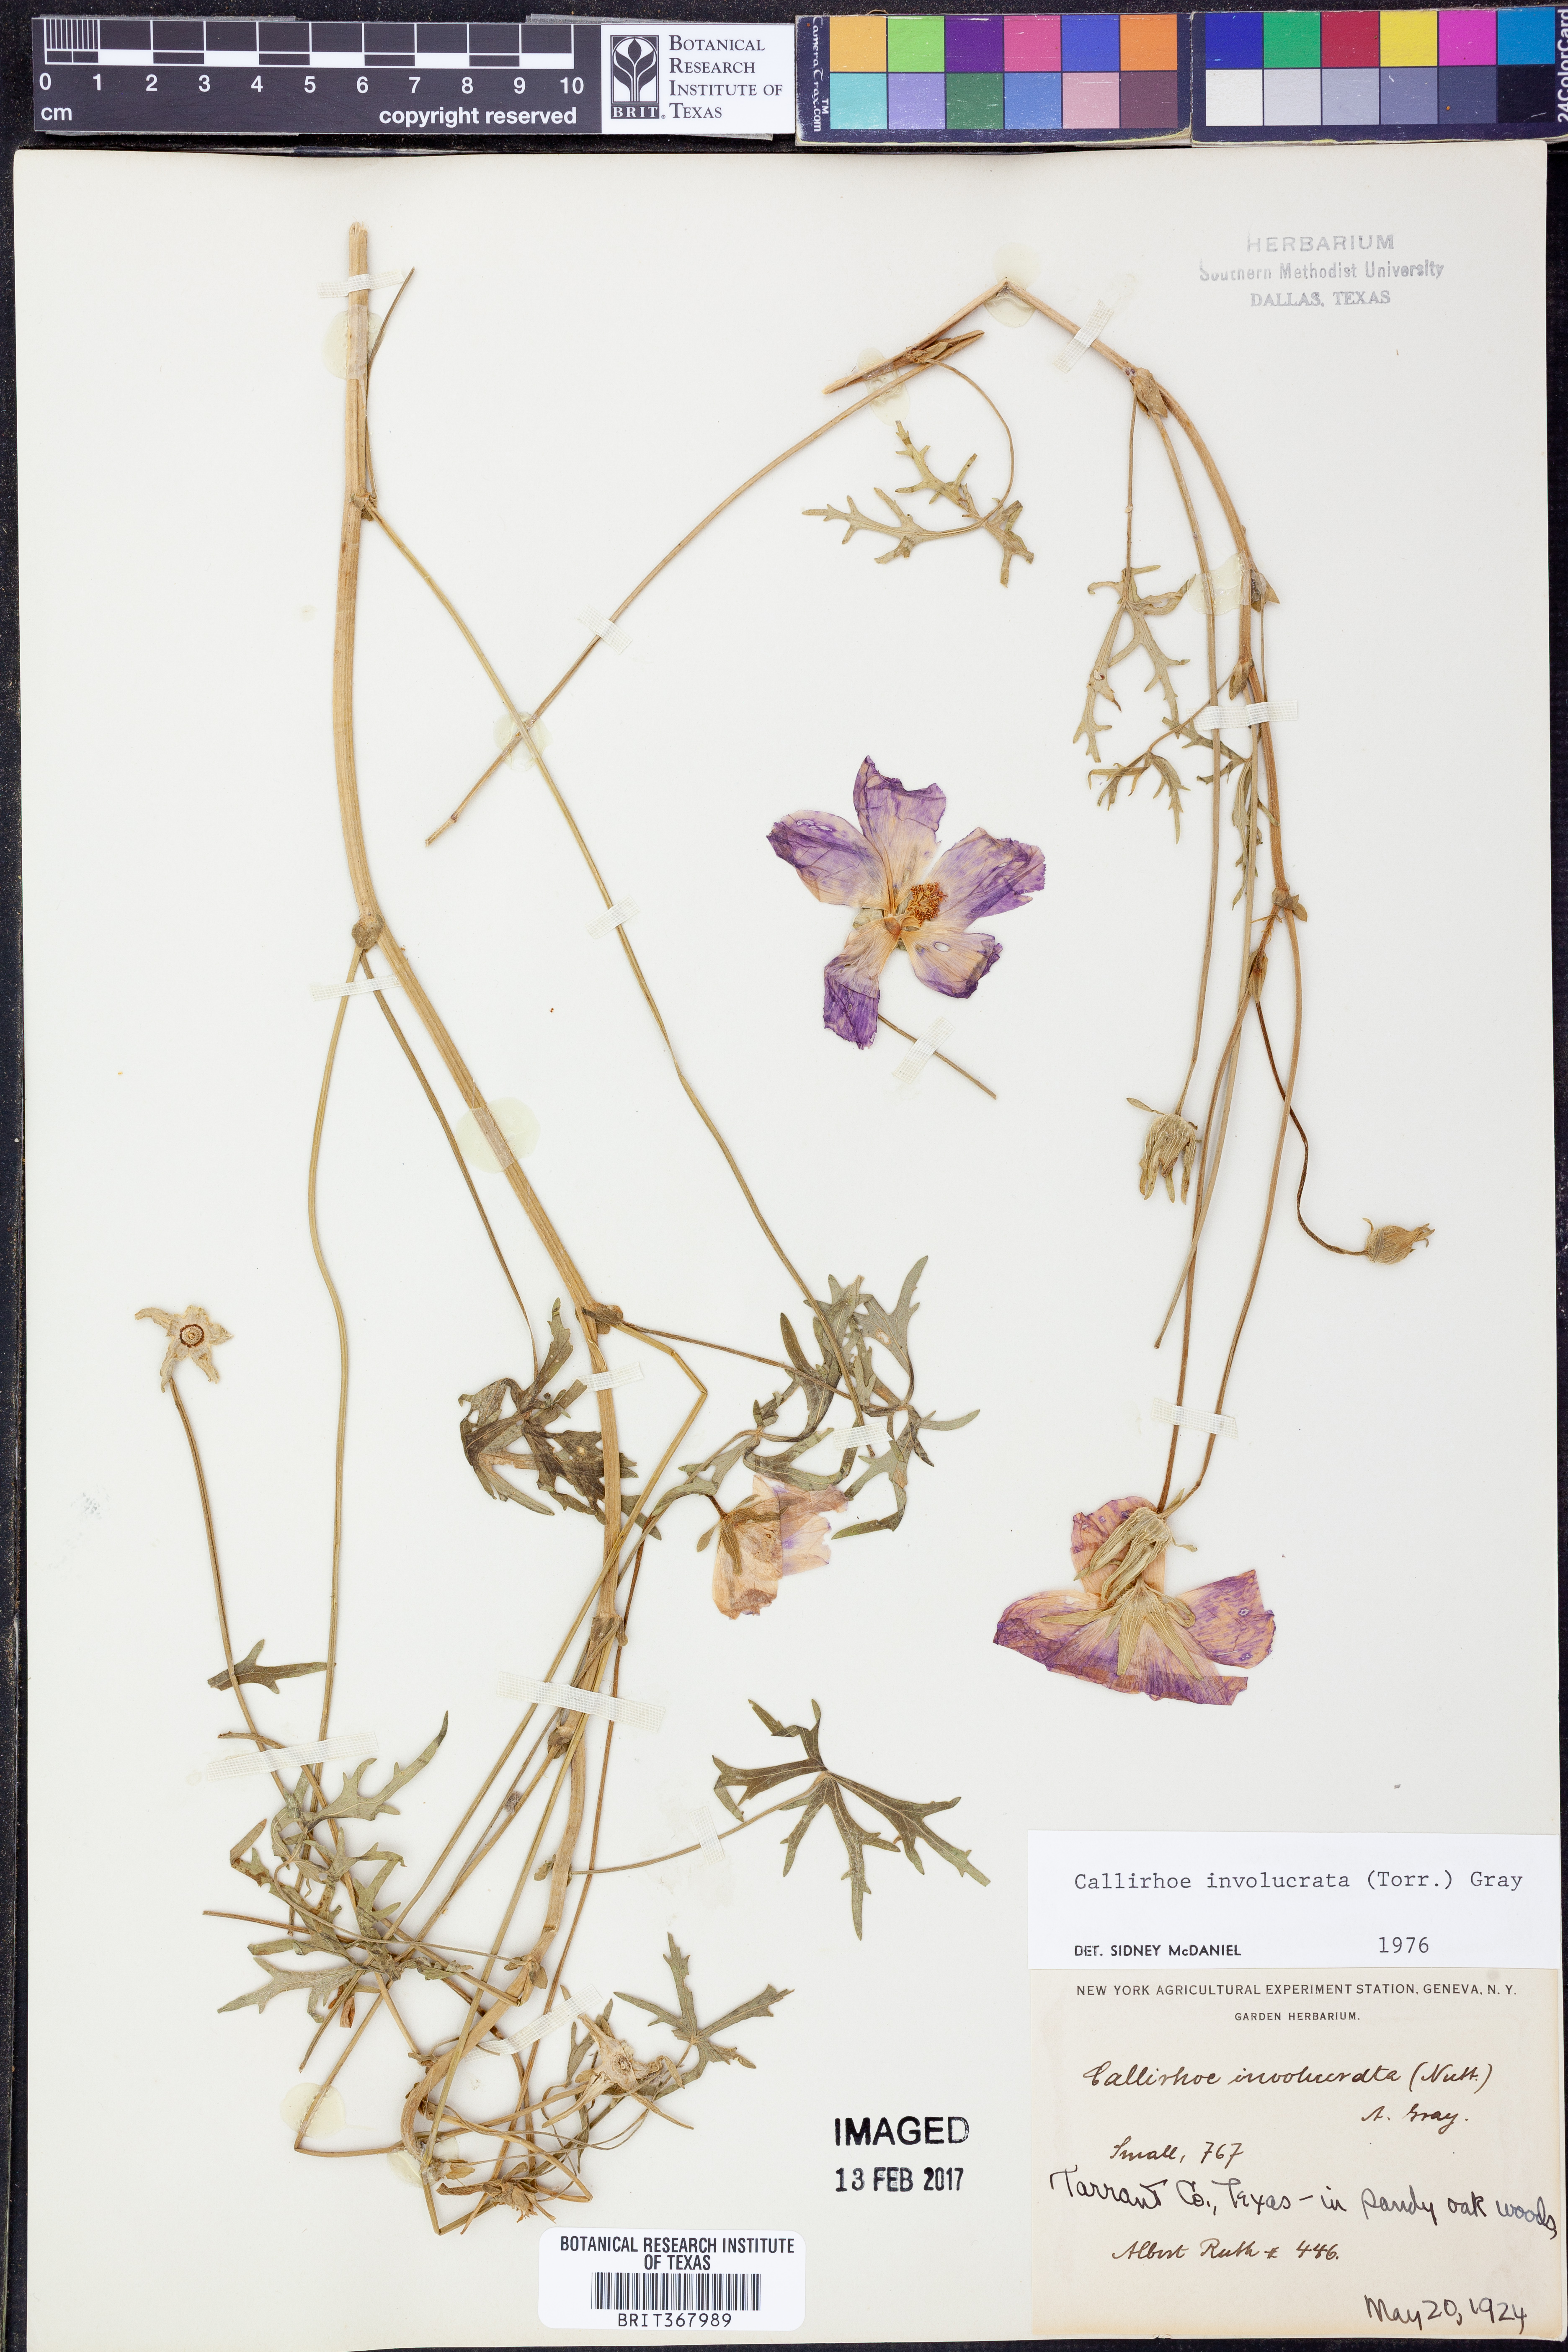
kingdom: Plantae
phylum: Tracheophyta
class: Magnoliopsida
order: Malvales
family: Malvaceae
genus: Callirhoe
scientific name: Callirhoe involucrata
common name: Purple poppy-mallow
